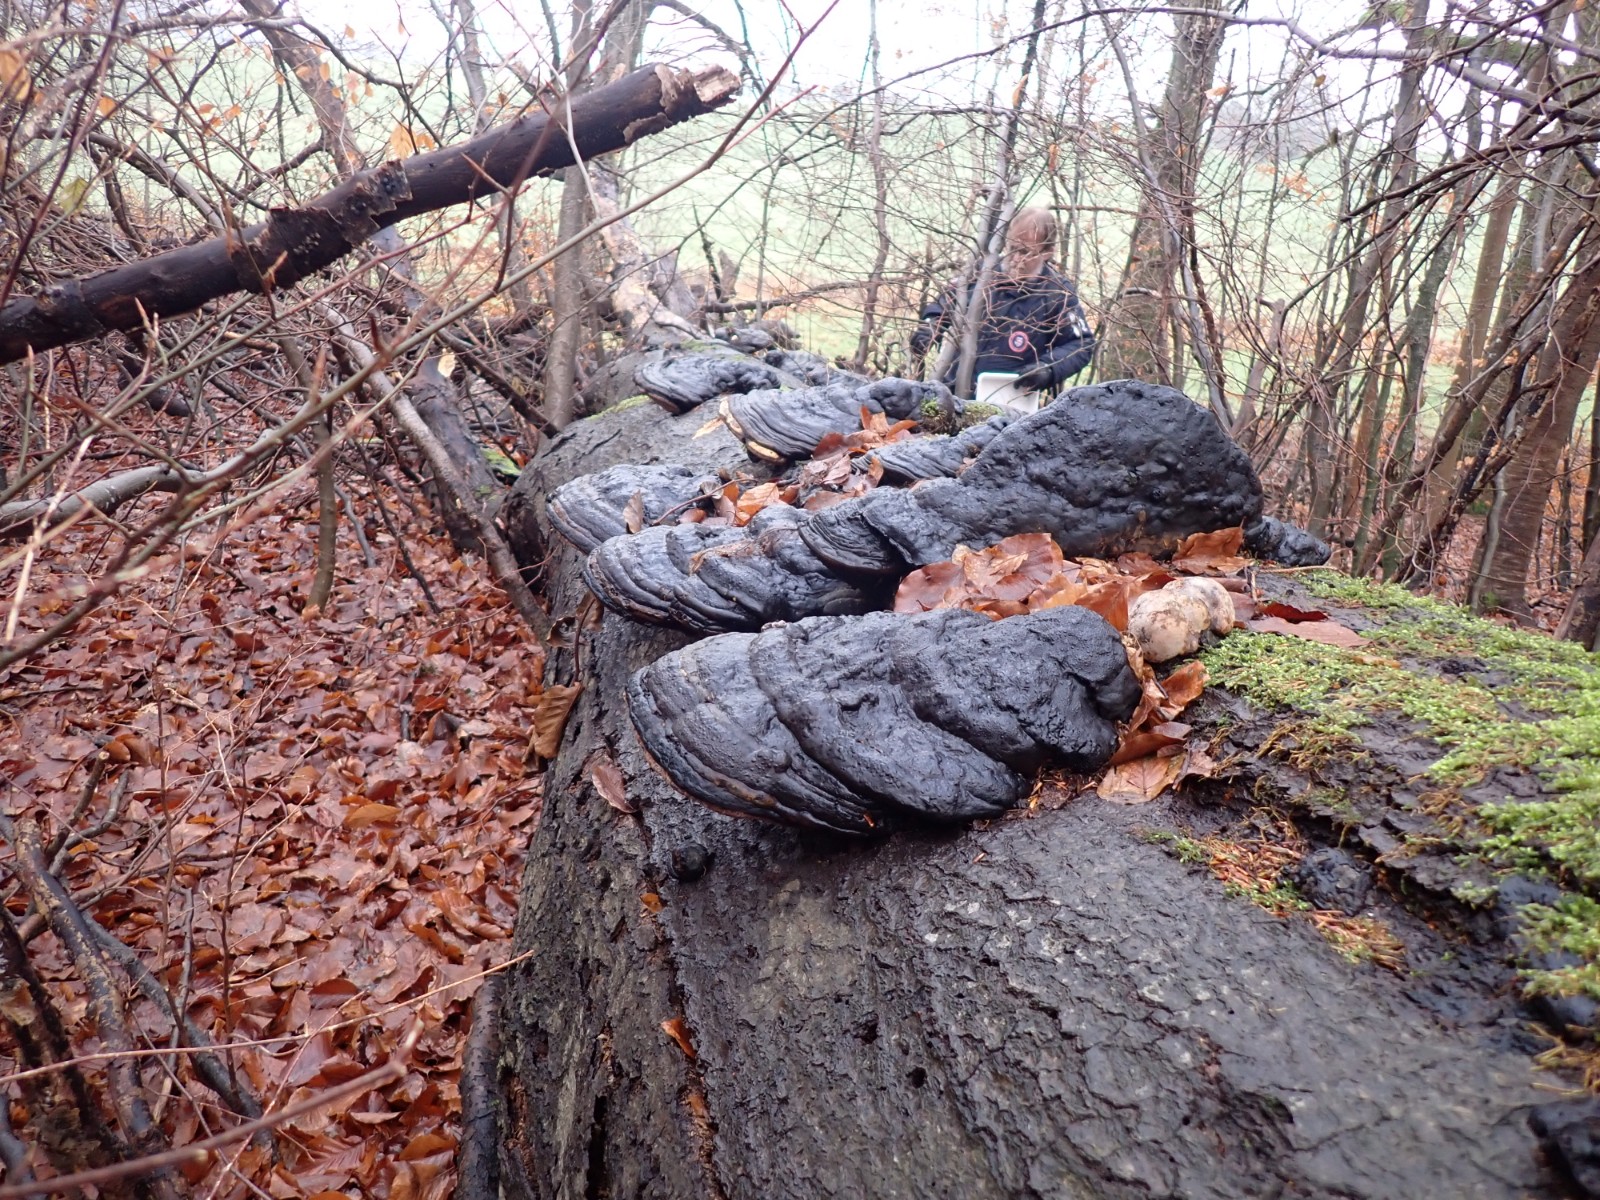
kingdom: Fungi
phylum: Basidiomycota
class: Agaricomycetes
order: Polyporales
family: Polyporaceae
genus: Fomes
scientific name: Fomes fomentarius
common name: tøndersvamp
